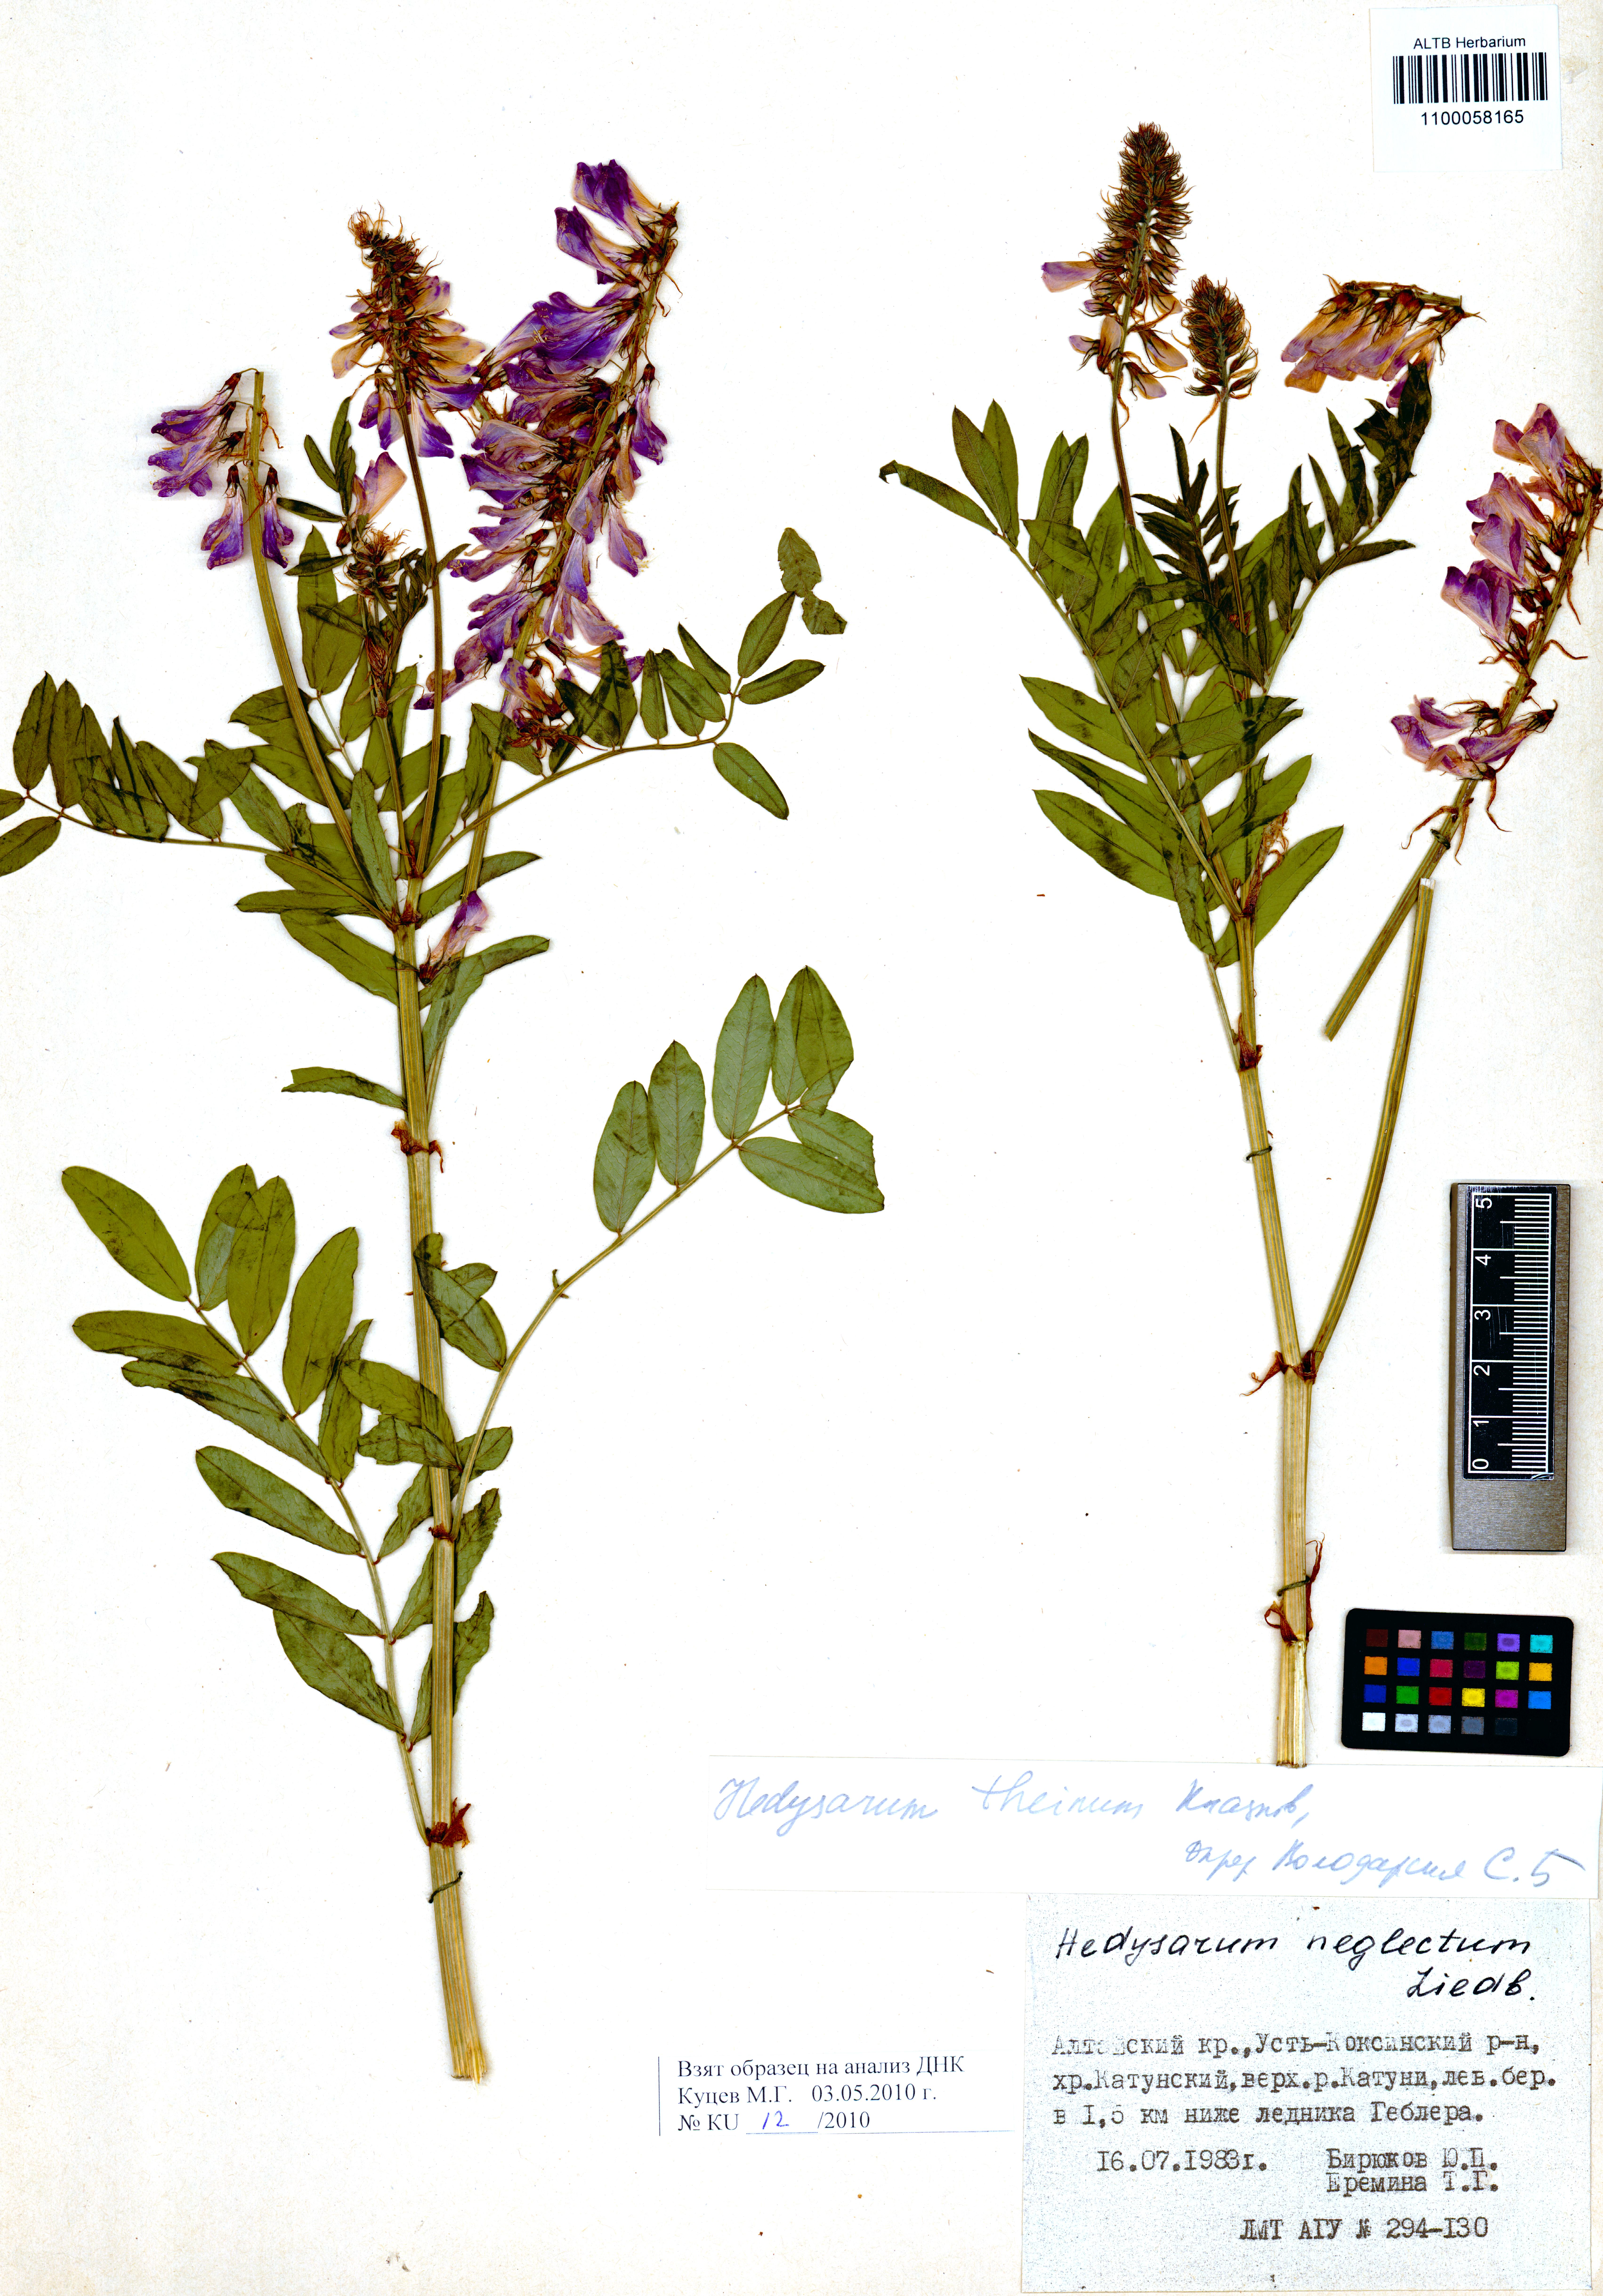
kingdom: Plantae
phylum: Tracheophyta
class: Magnoliopsida
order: Fabales
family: Fabaceae
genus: Hedysarum
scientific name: Hedysarum theinum
